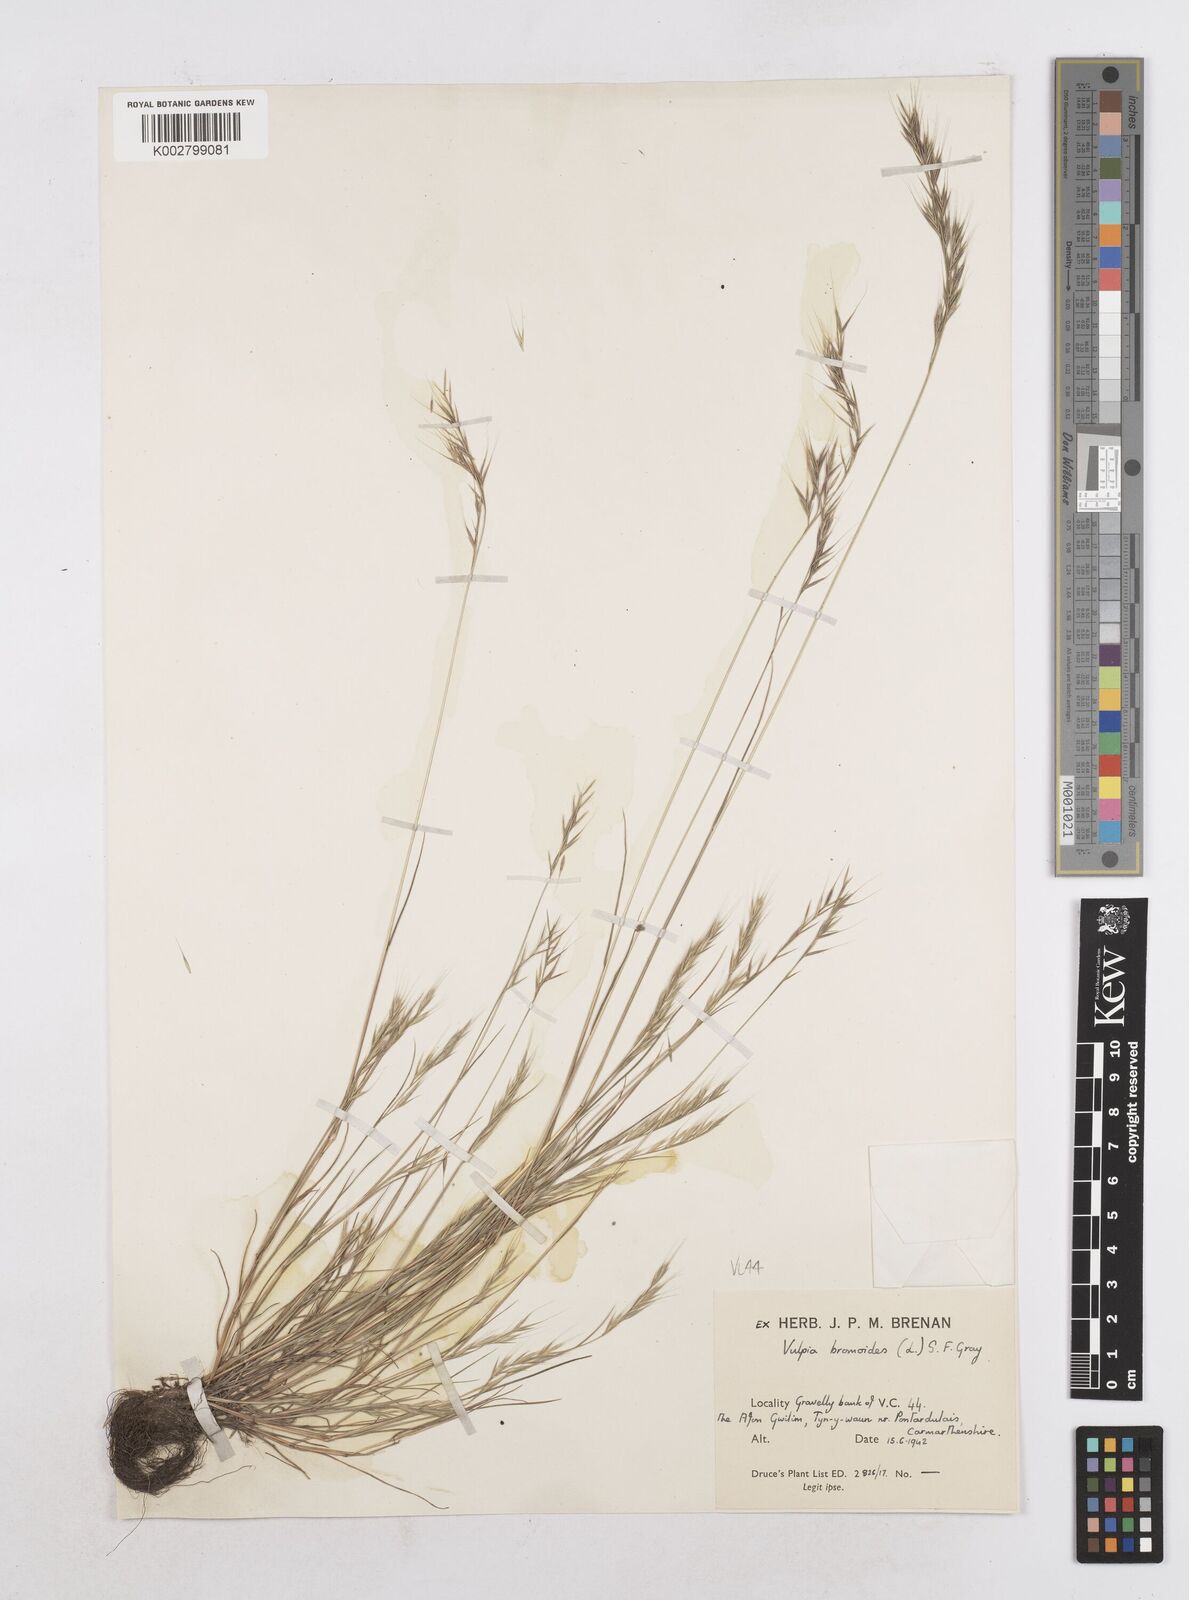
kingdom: Plantae
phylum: Tracheophyta
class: Liliopsida
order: Poales
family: Poaceae
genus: Festuca
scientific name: Festuca bromoides
